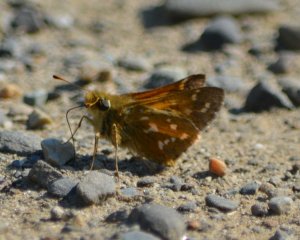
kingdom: Animalia
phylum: Arthropoda
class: Insecta
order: Lepidoptera
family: Hesperiidae
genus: Hesperia
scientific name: Hesperia comma
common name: Common Branded Skipper
